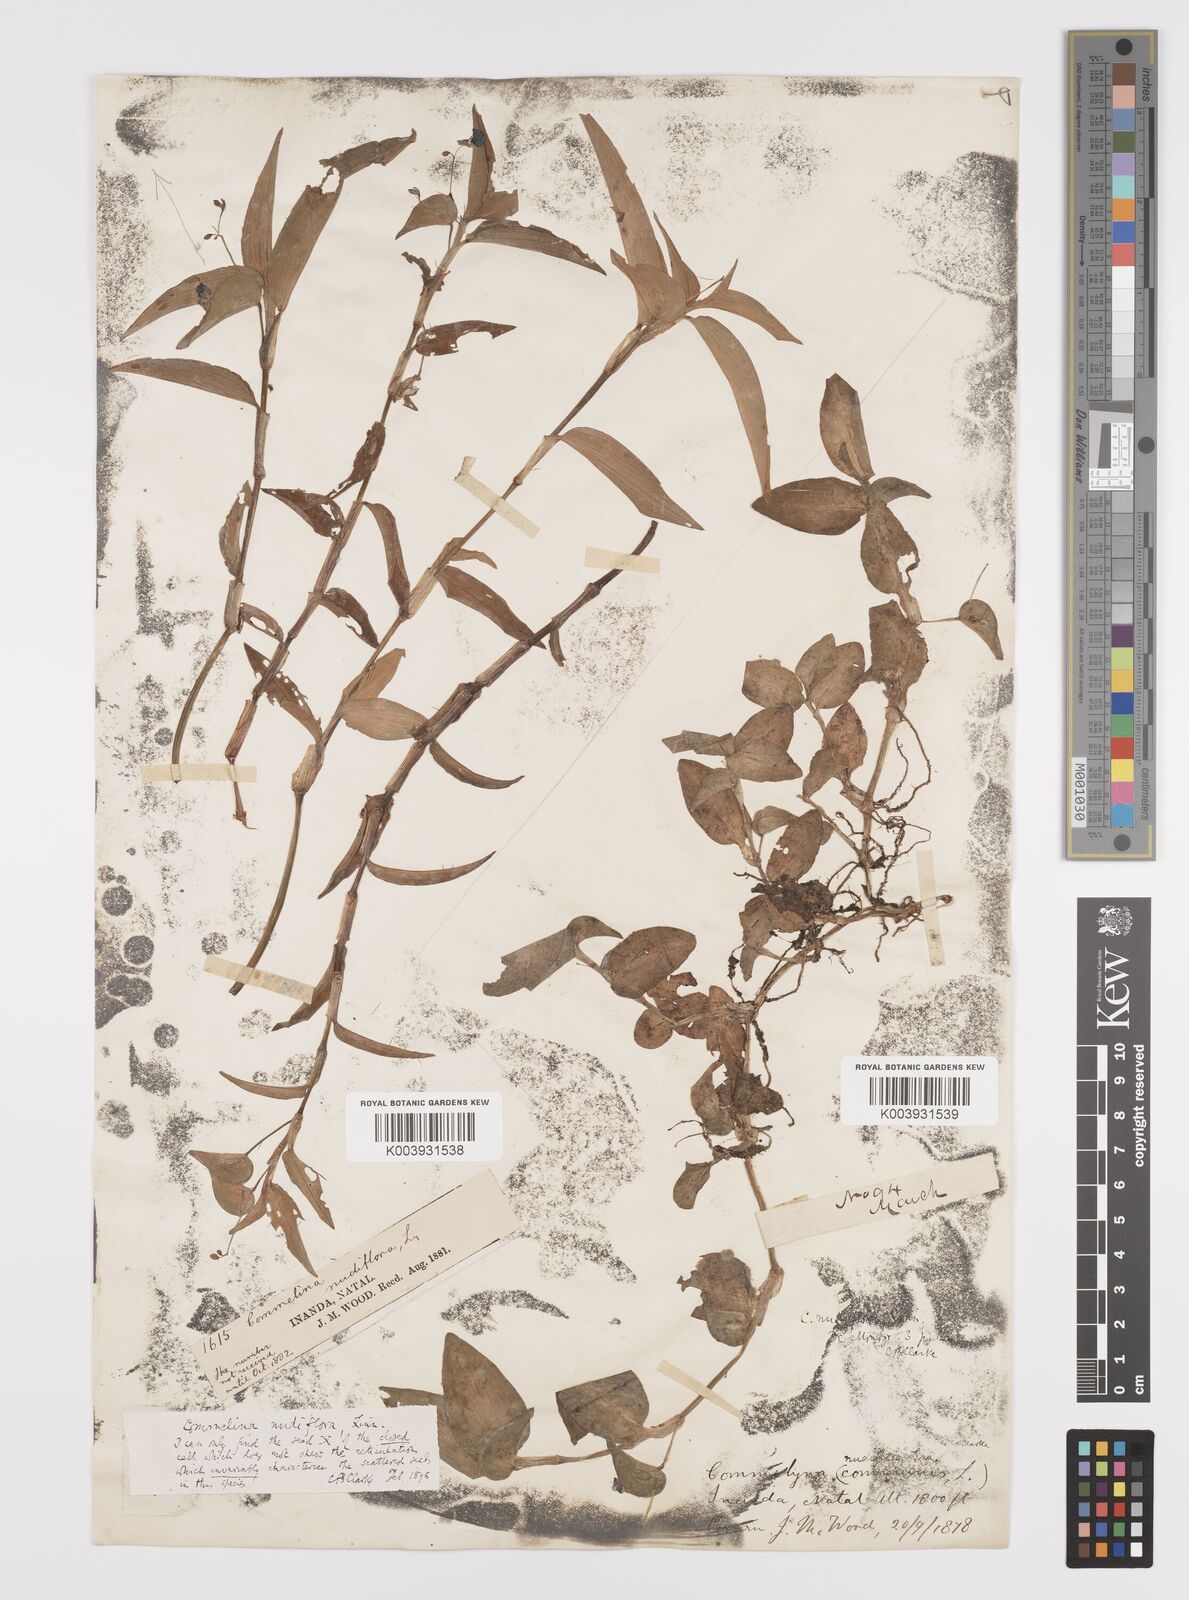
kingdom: Plantae
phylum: Tracheophyta
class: Liliopsida
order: Commelinales
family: Commelinaceae
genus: Commelina
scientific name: Commelina diffusa
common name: Climbing dayflower
